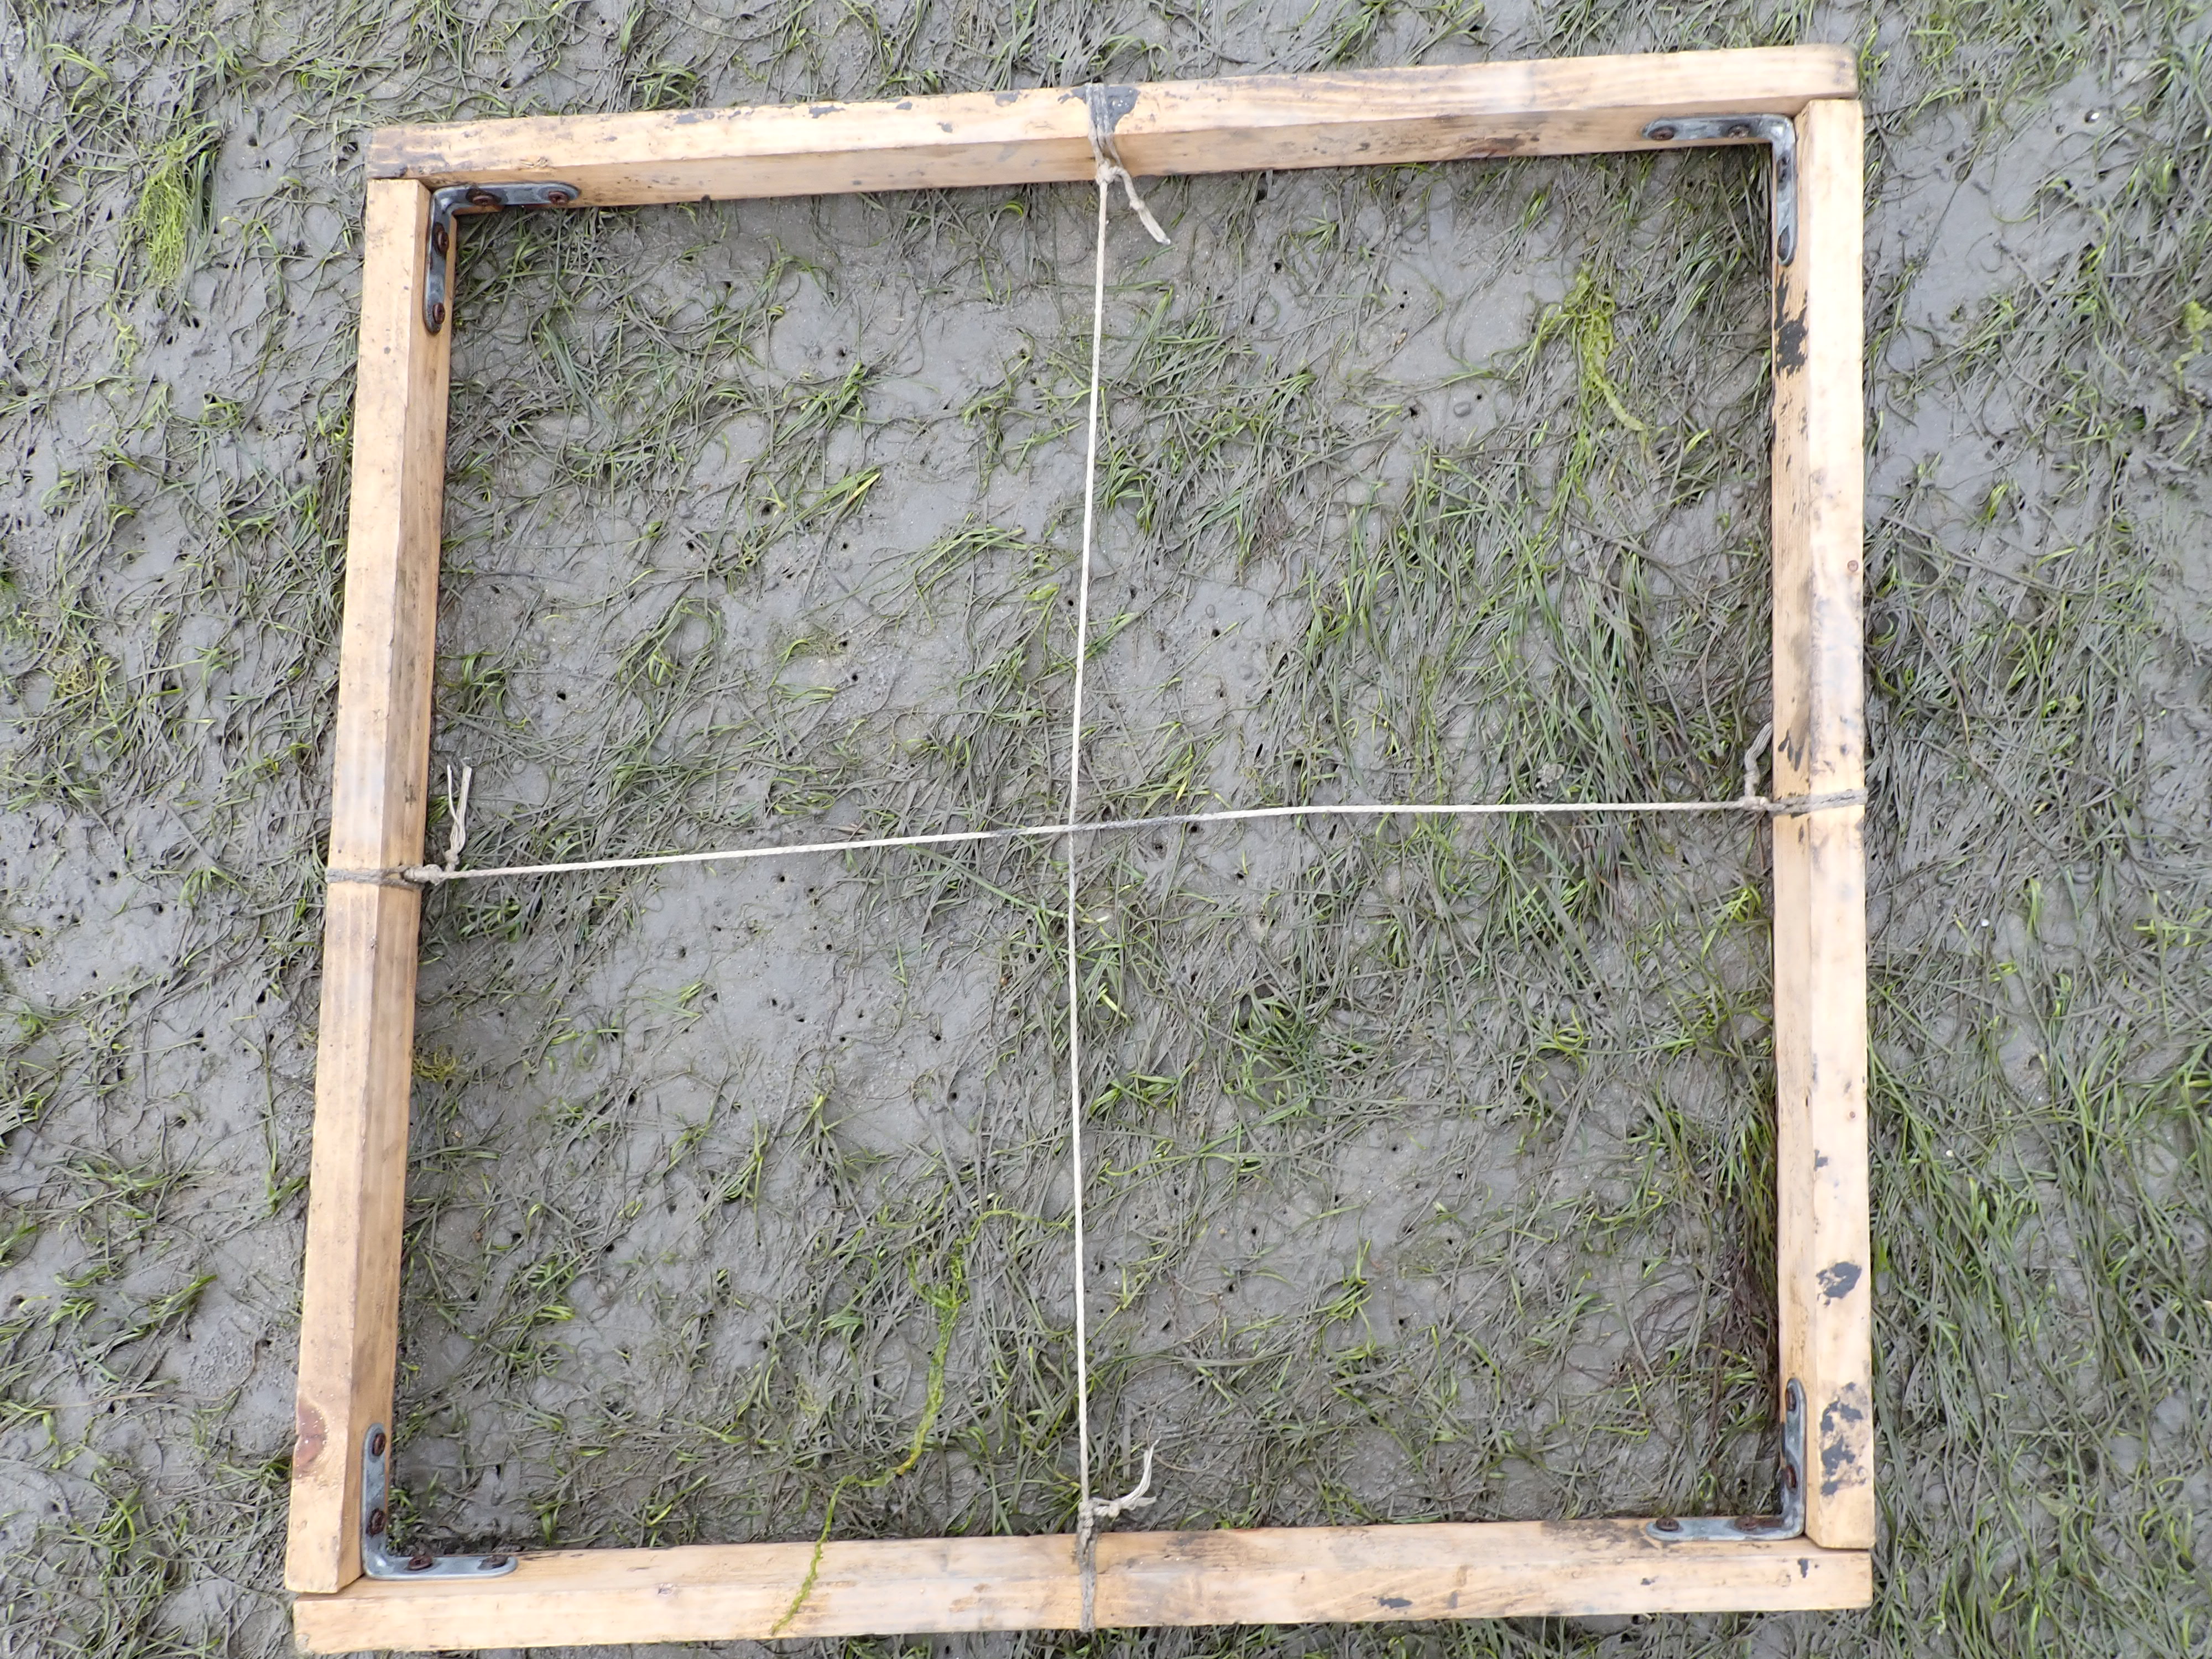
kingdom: Plantae
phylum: Tracheophyta
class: Liliopsida
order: Alismatales
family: Zosteraceae
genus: Zostera
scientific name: Zostera noltii
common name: Dwarf eelgrass
